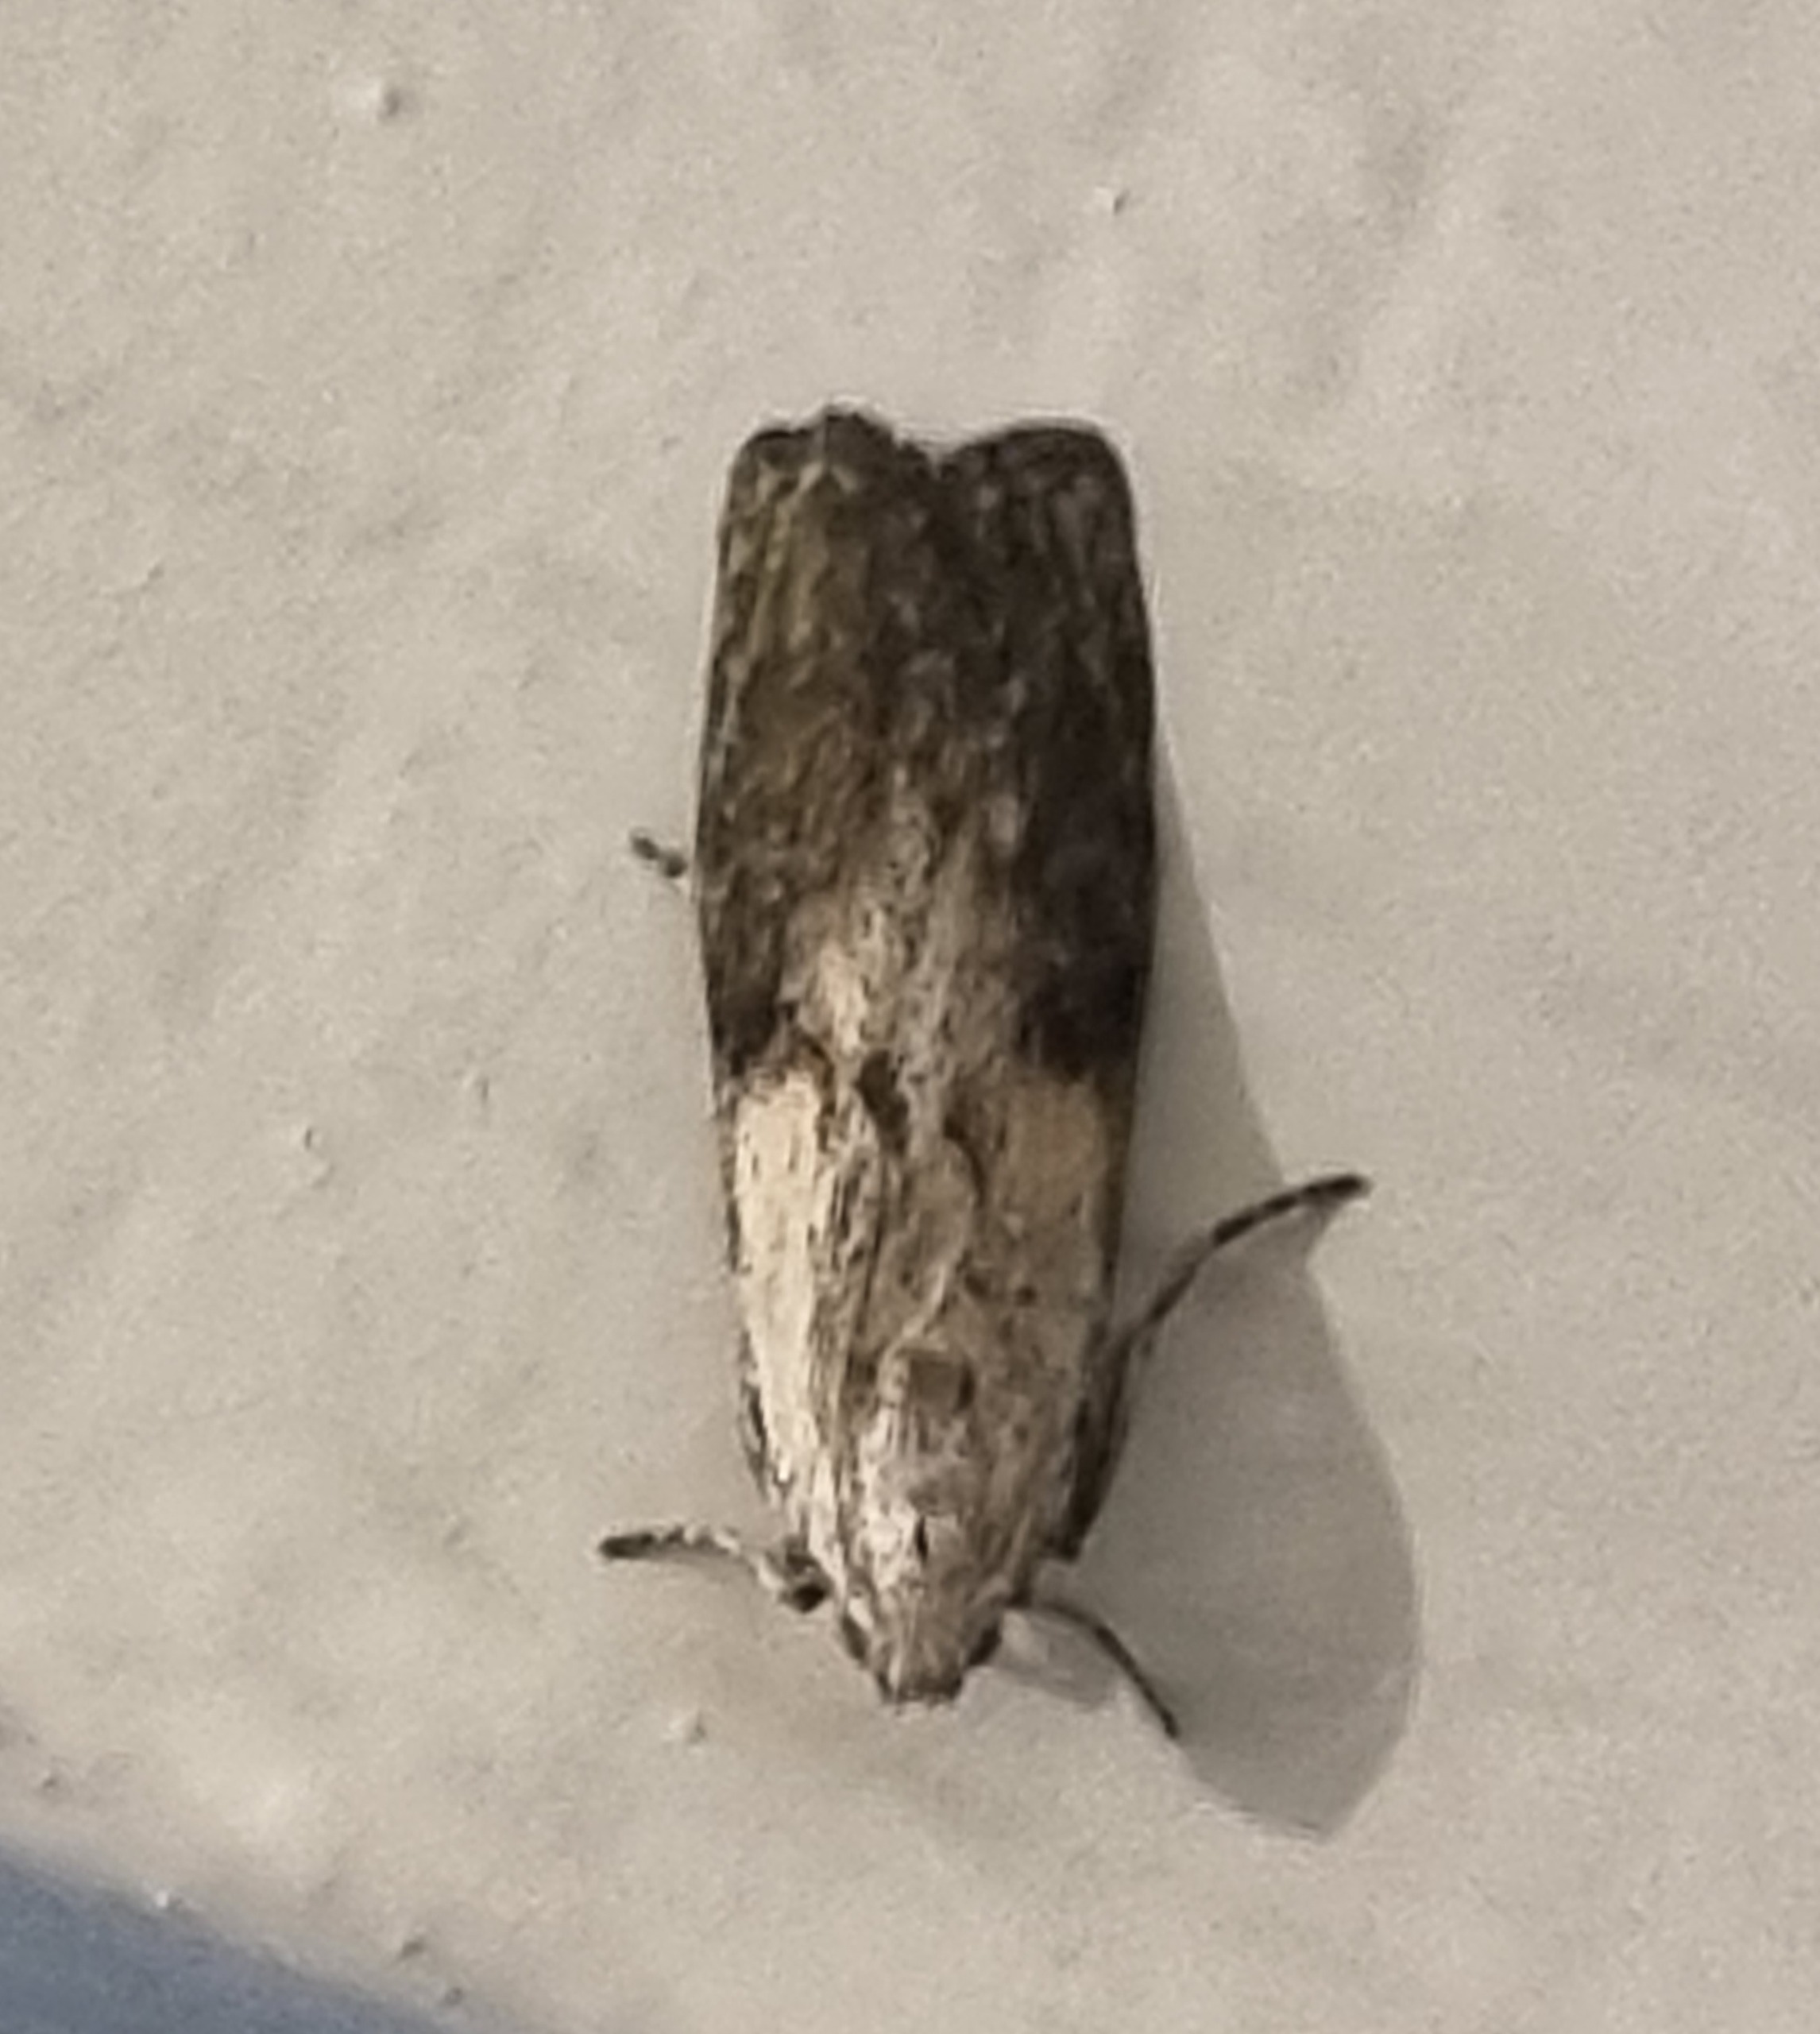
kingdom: Animalia
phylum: Arthropoda
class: Insecta
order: Lepidoptera
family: Pyralidae
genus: Aphomia
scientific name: Aphomia sociella
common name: Humlevoksmøl
